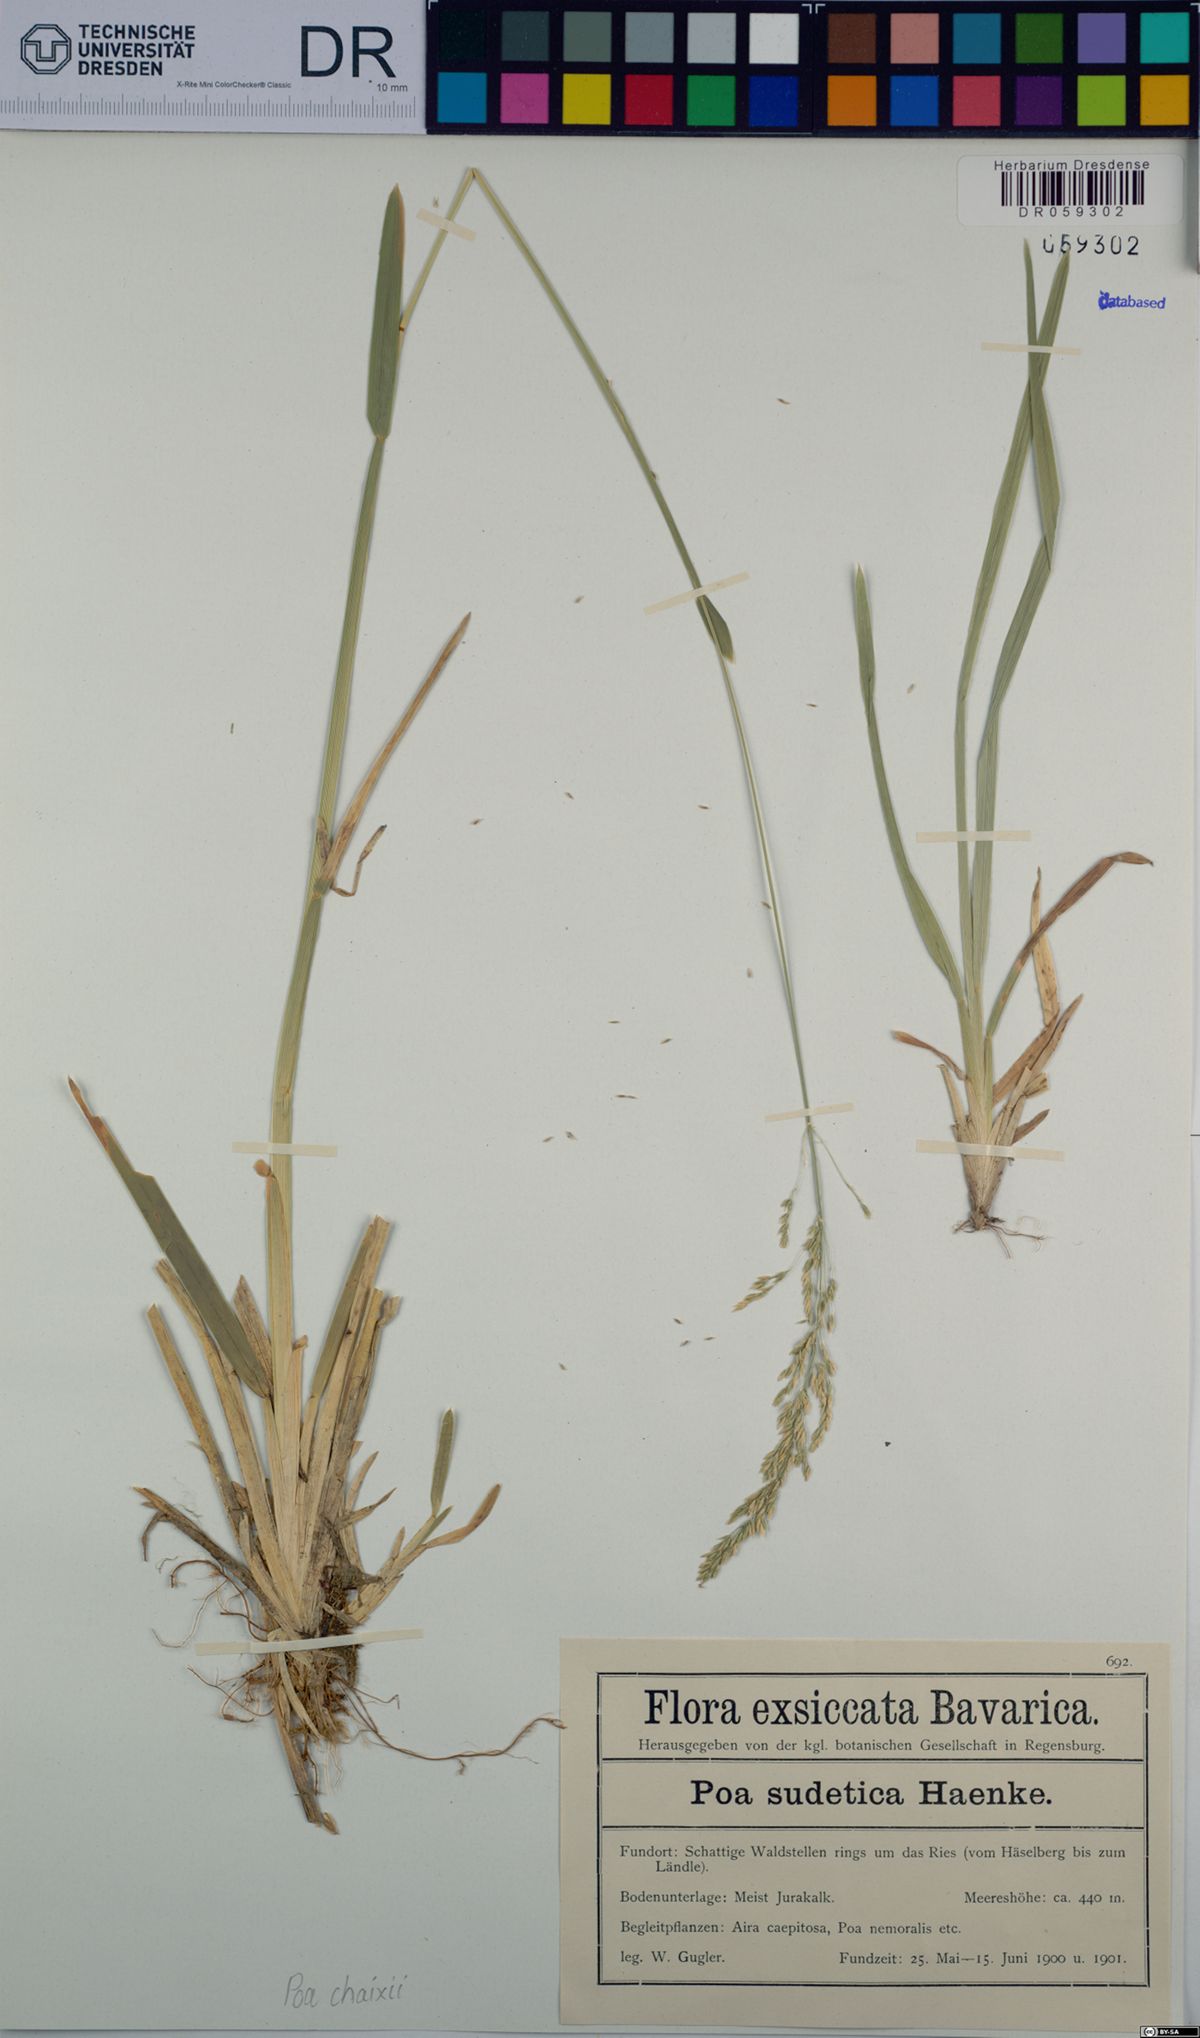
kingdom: Plantae
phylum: Tracheophyta
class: Liliopsida
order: Poales
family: Poaceae
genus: Poa
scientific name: Poa chaixii
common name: Broad-leaved meadow-grass
